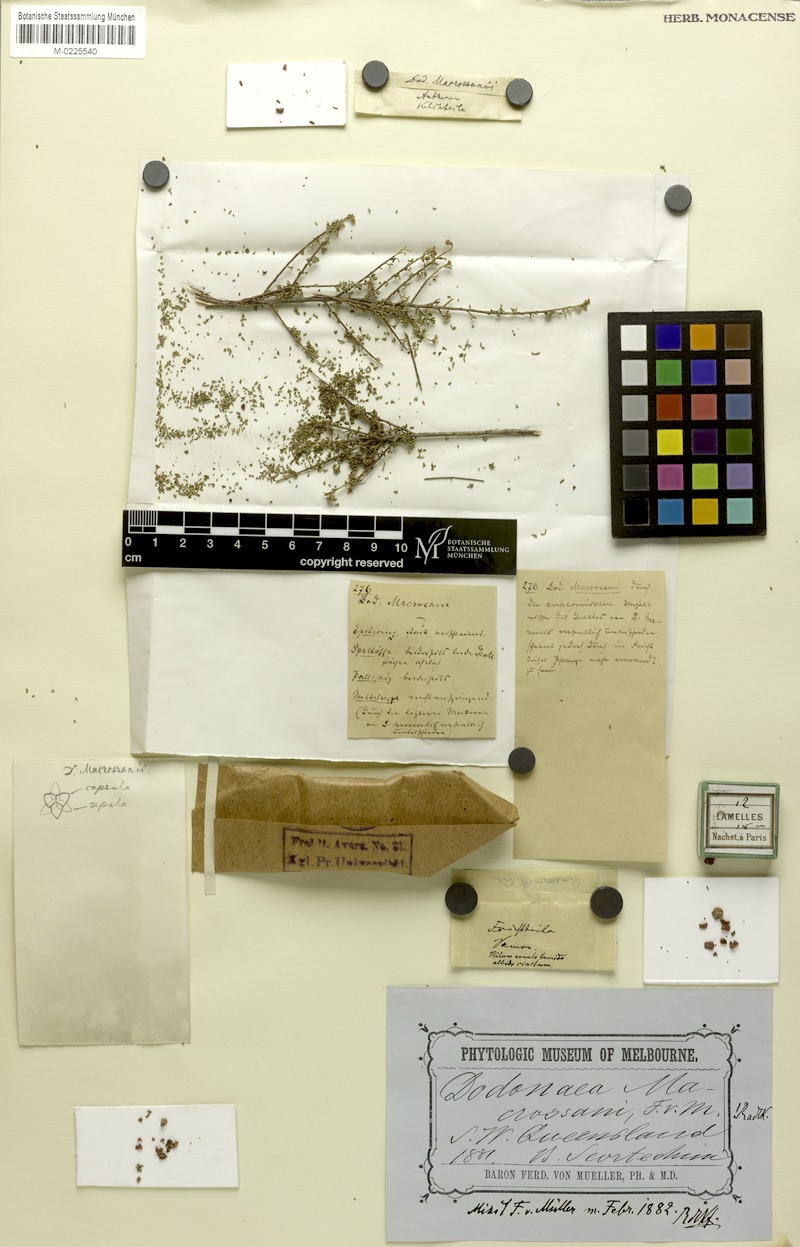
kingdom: Plantae
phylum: Tracheophyta
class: Magnoliopsida
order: Sapindales
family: Sapindaceae
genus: Dodonaea
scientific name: Dodonaea macrossanii
